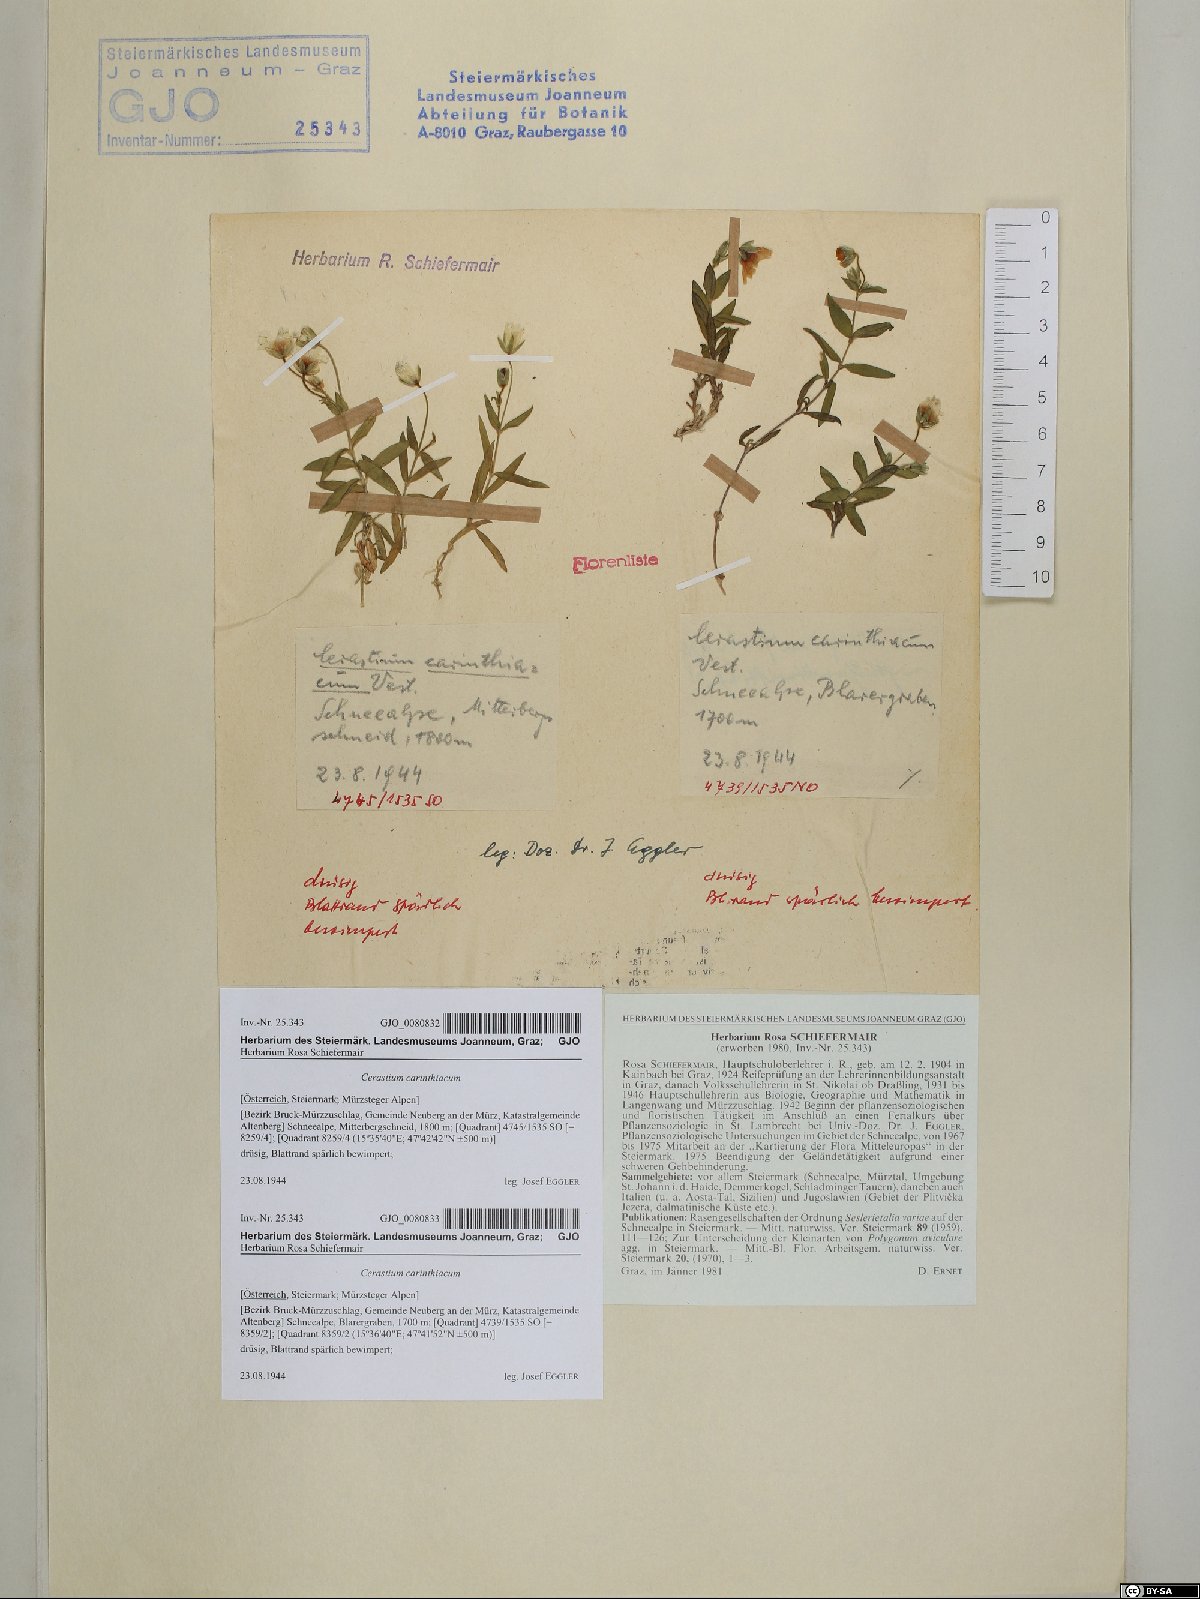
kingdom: Plantae
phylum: Tracheophyta
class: Magnoliopsida
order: Caryophyllales
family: Caryophyllaceae
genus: Cerastium
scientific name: Cerastium carinthiacum
